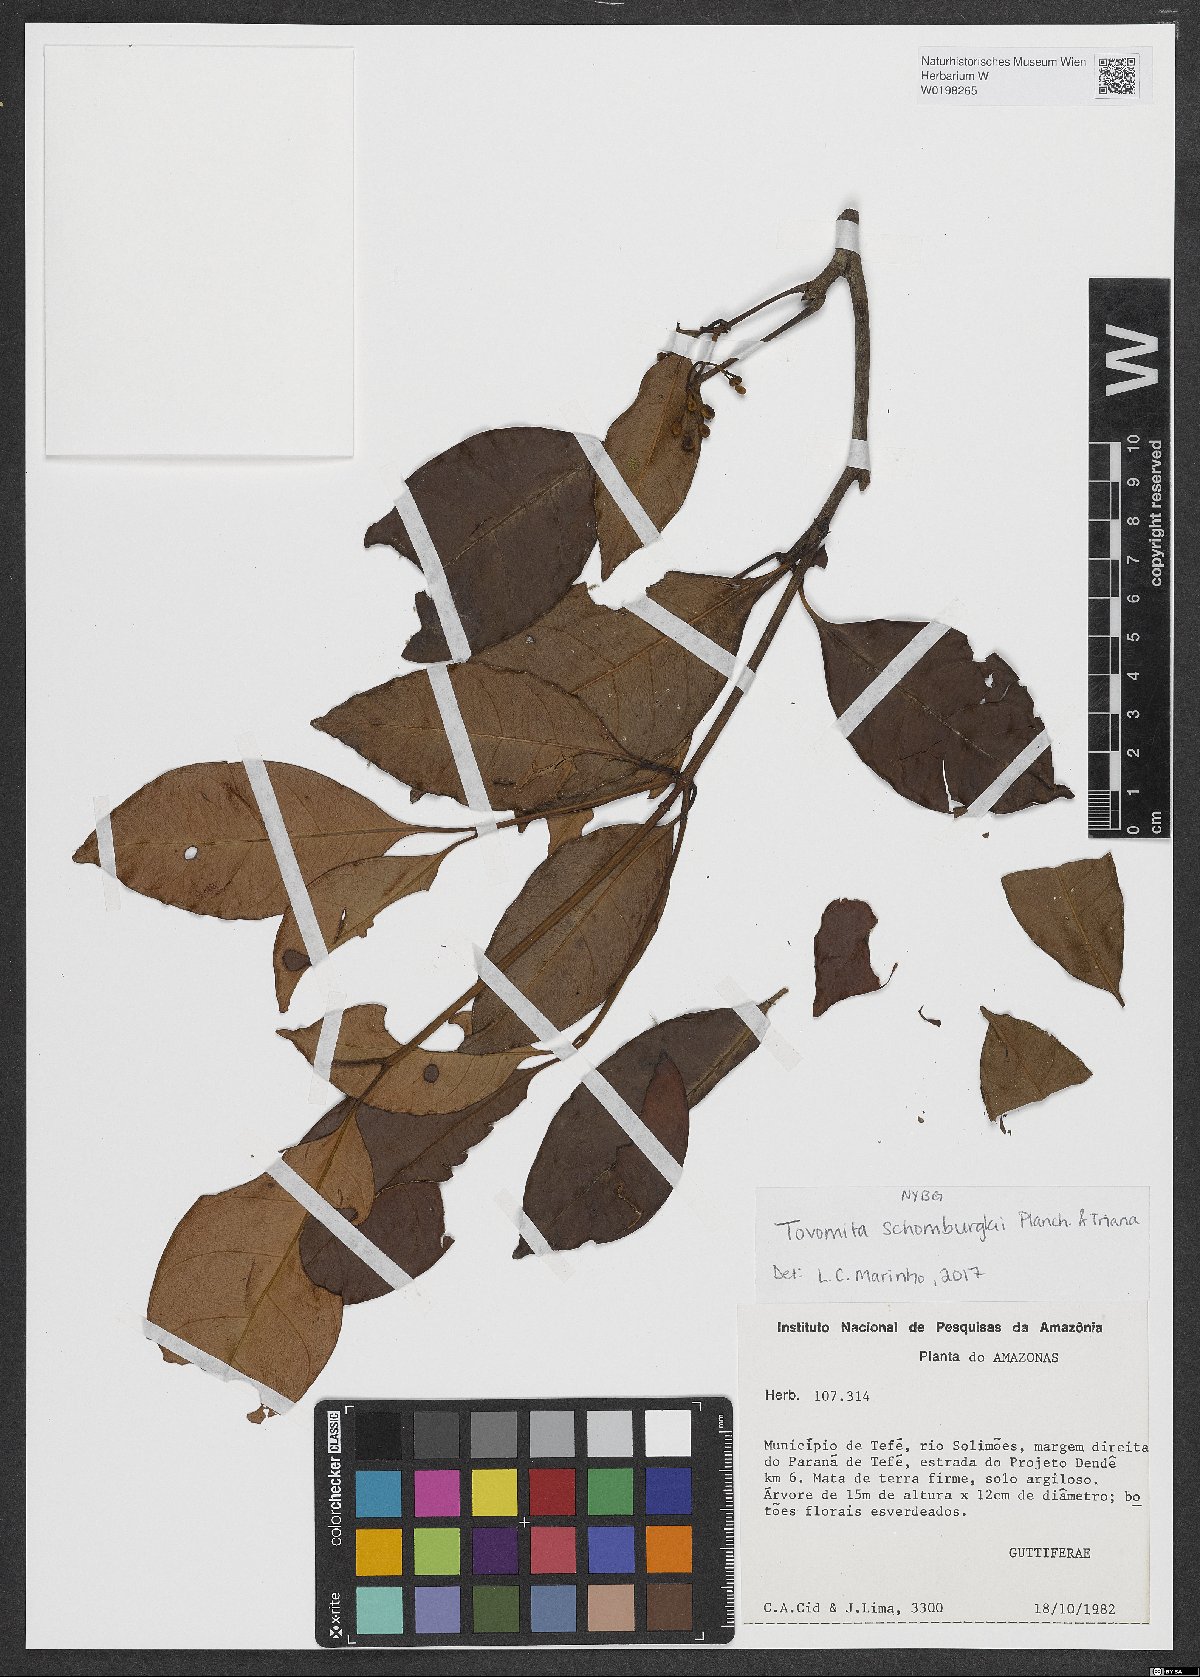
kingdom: Plantae
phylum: Tracheophyta
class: Magnoliopsida
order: Malpighiales
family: Clusiaceae
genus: Tovomita
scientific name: Tovomita schomburgkii
